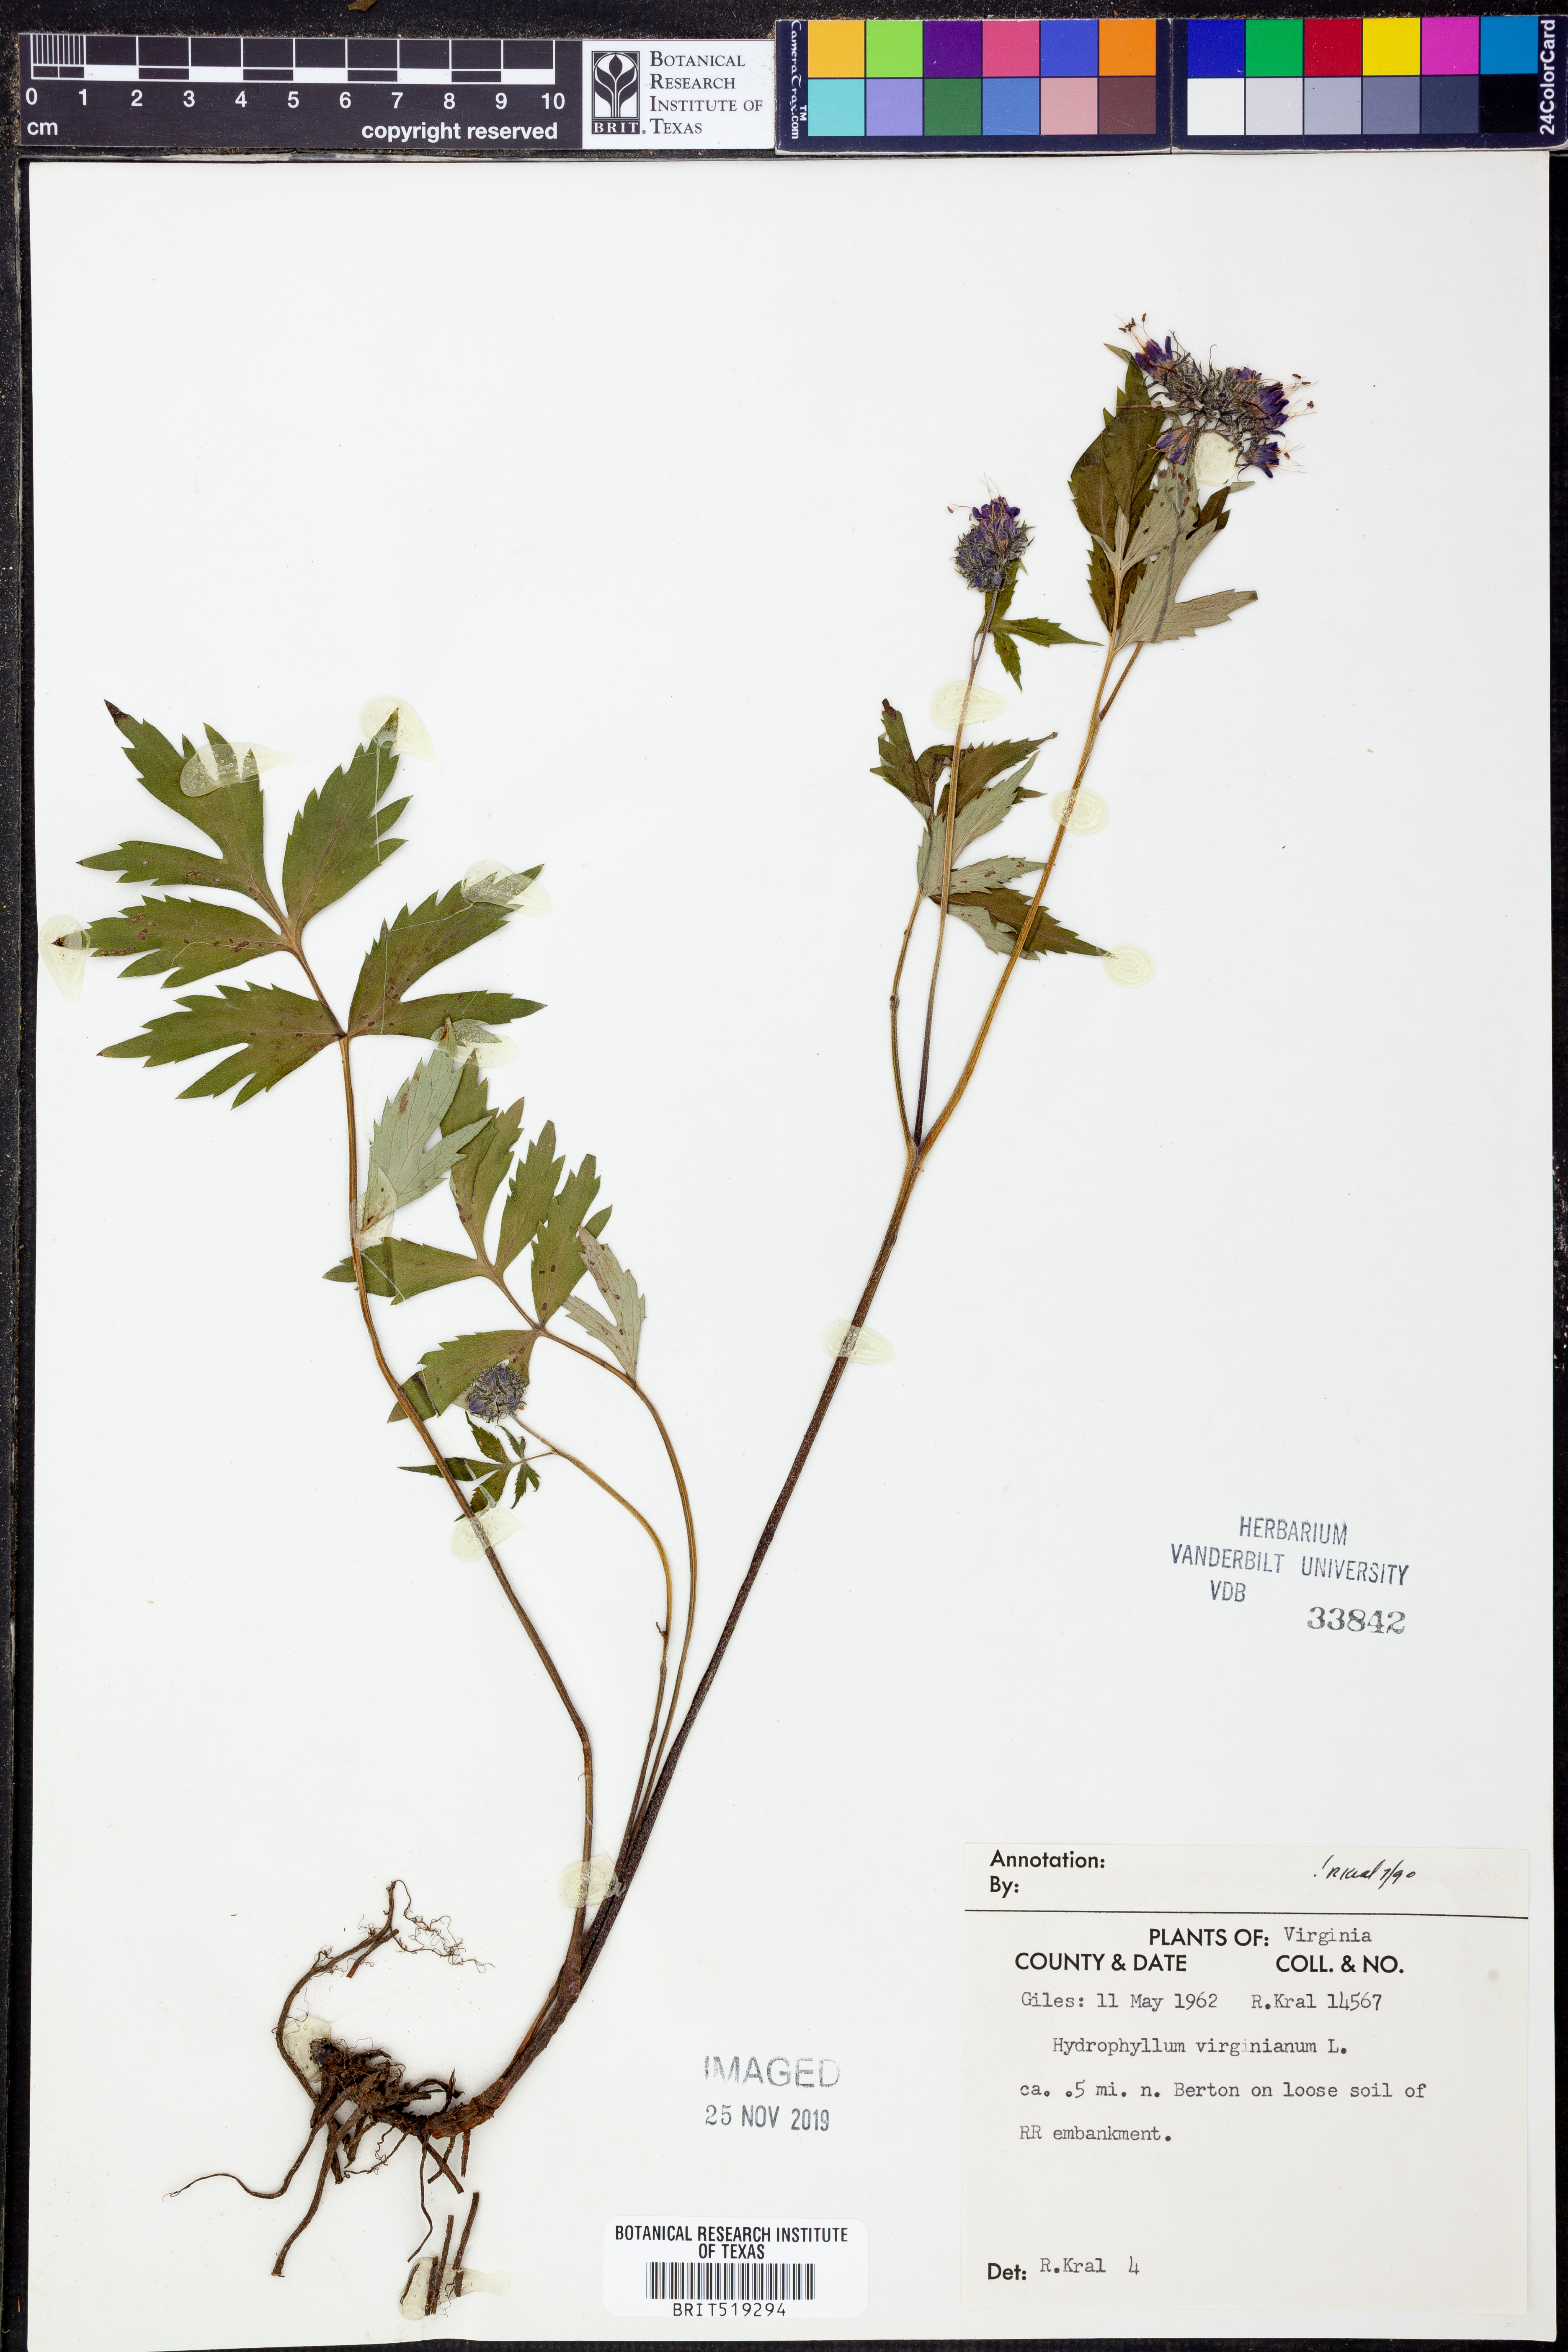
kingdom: Plantae
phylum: Tracheophyta
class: Magnoliopsida
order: Boraginales
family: Hydrophyllaceae
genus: Hydrophyllum
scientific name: Hydrophyllum virginianum
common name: Virginia waterleaf
